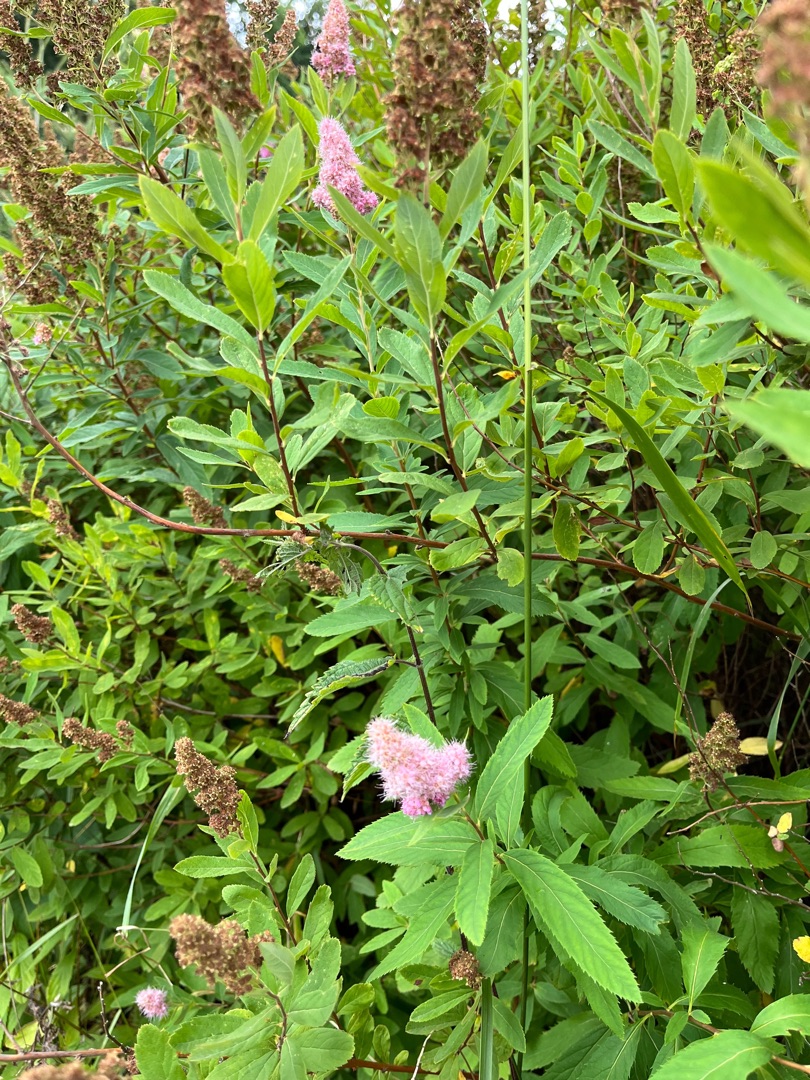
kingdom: Plantae
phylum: Tracheophyta
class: Magnoliopsida
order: Rosales
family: Rosaceae
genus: Spiraea
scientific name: Spiraea billardii
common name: Klase-spiræa
